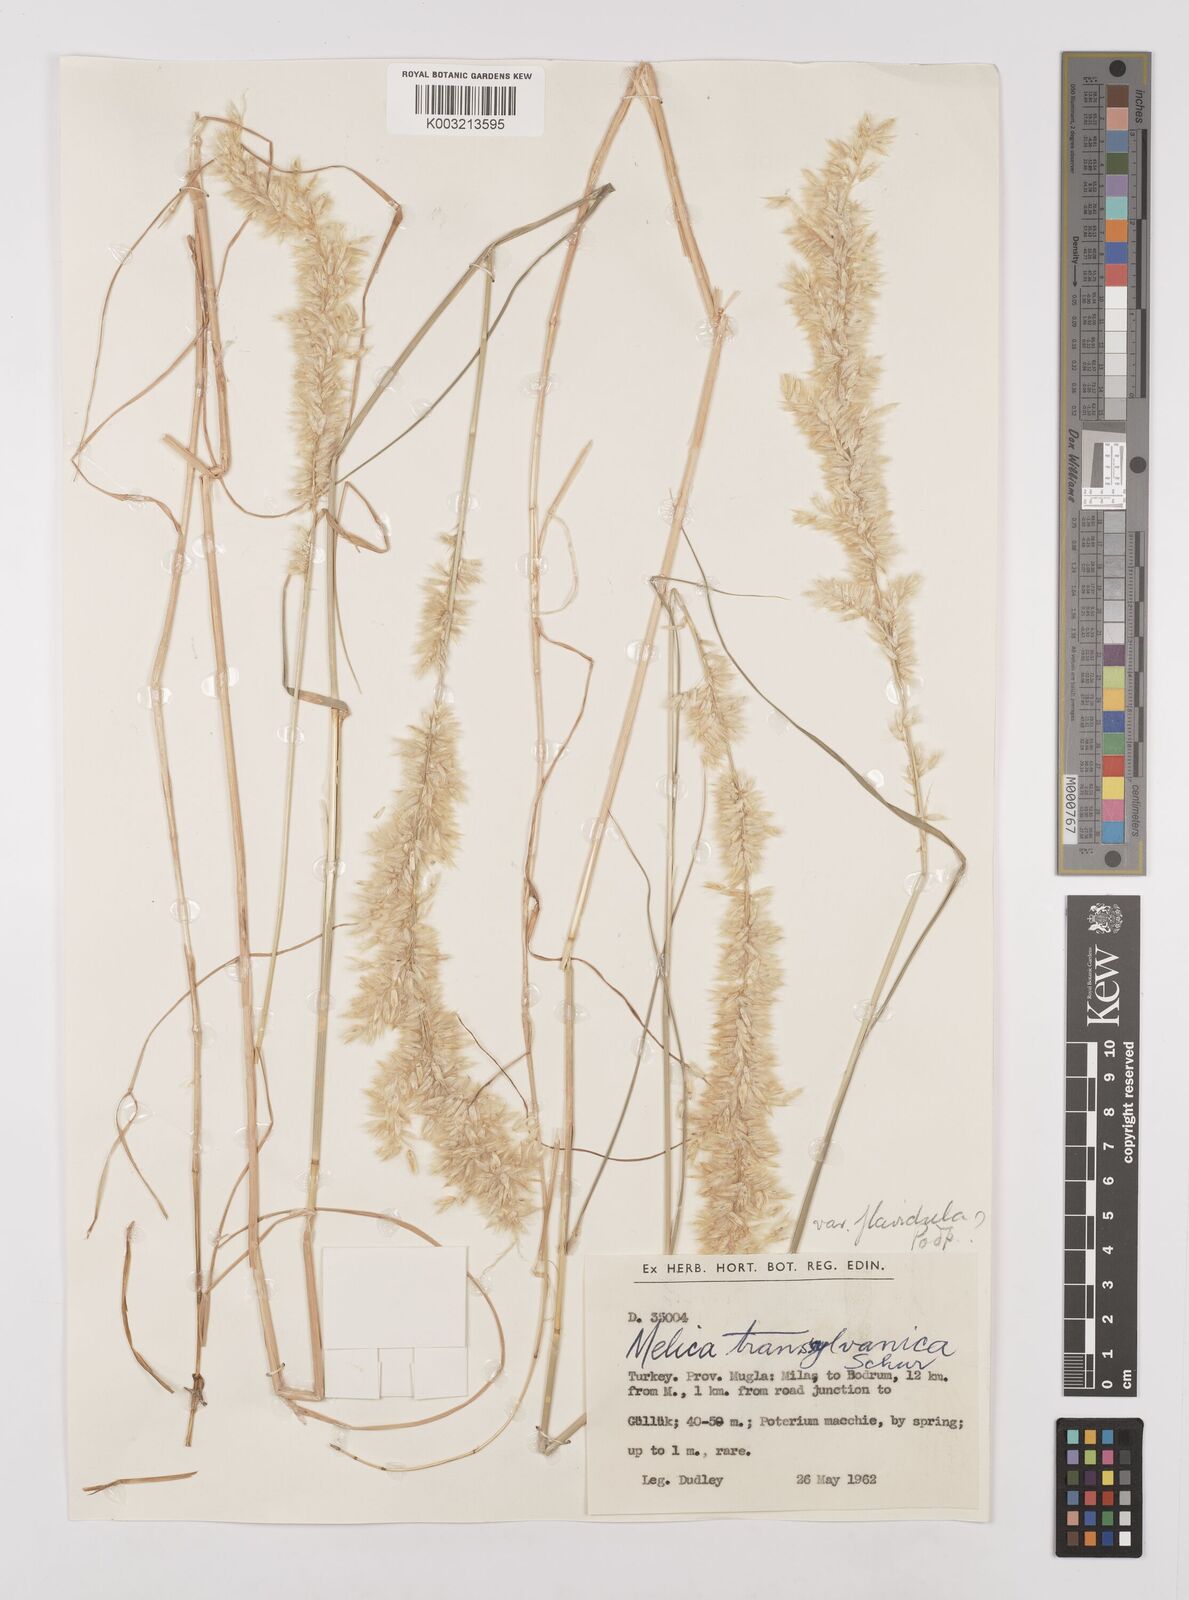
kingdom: Plantae
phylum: Tracheophyta
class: Liliopsida
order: Poales
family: Poaceae
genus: Melica
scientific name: Melica transsilvanica
